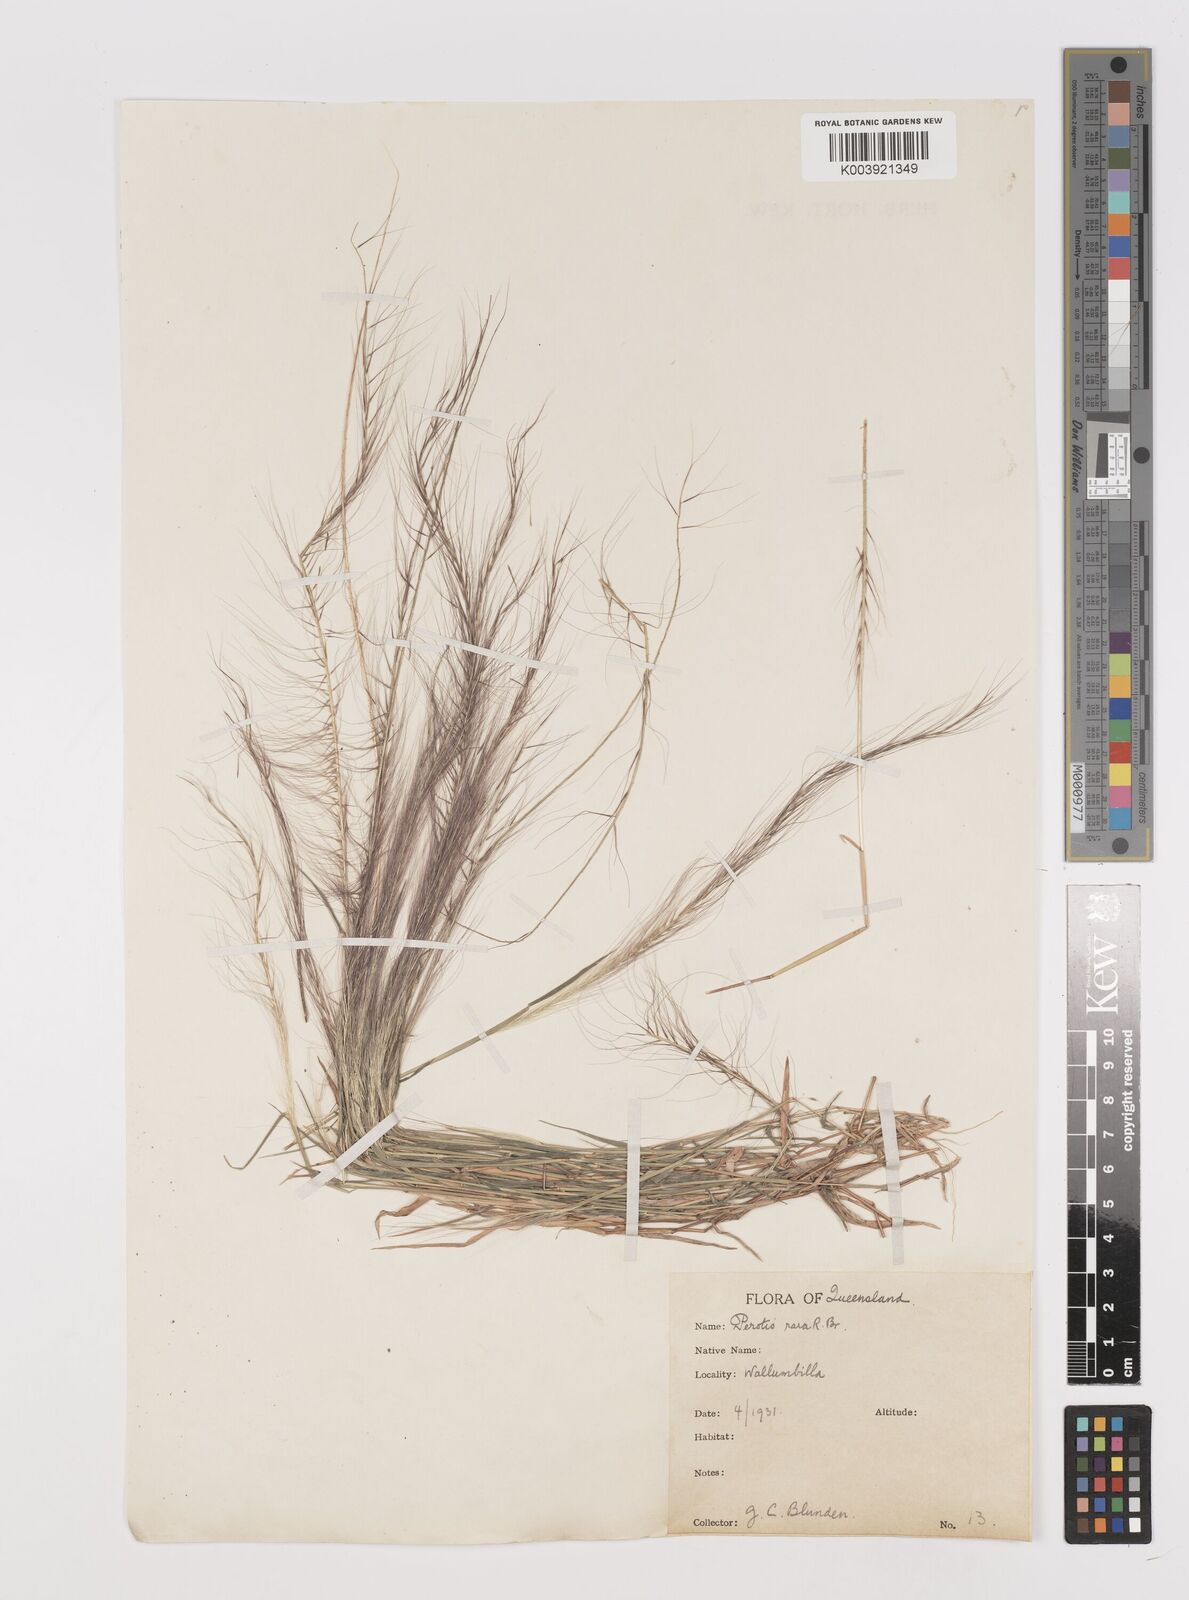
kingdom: Plantae
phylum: Tracheophyta
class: Liliopsida
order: Poales
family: Poaceae
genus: Perotis
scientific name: Perotis rara
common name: Comet grass
